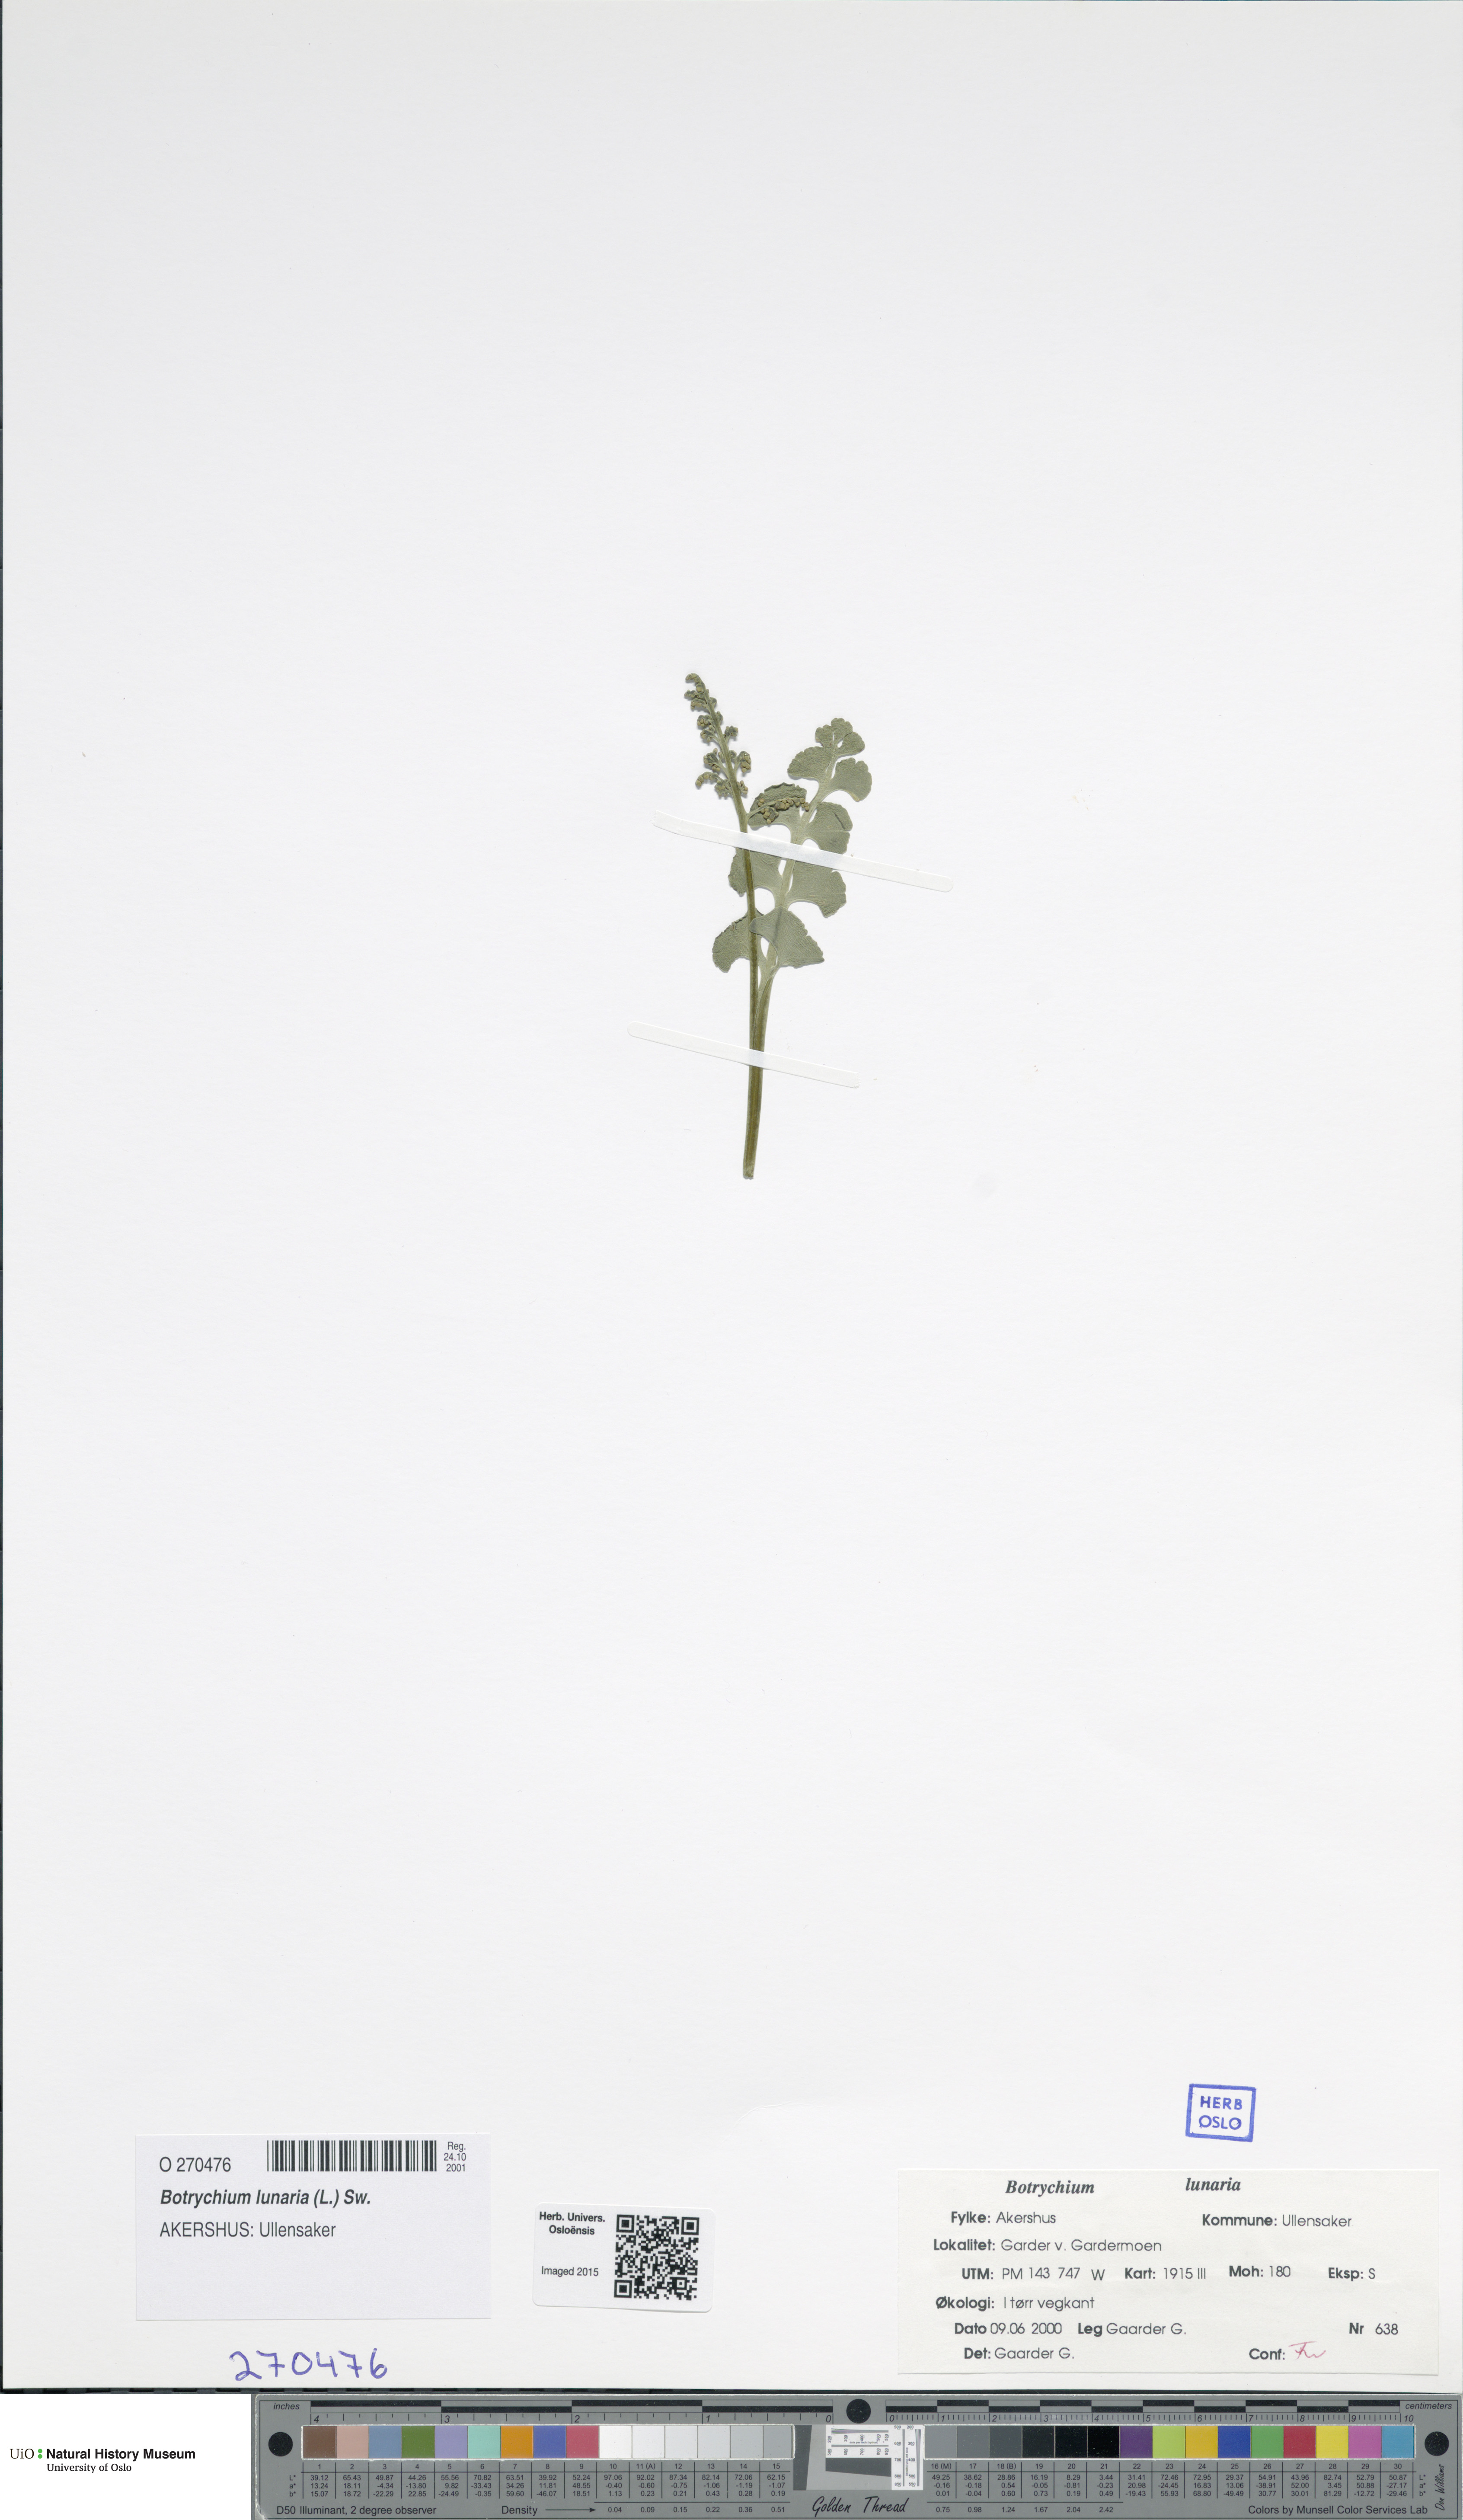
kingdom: Plantae
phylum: Tracheophyta
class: Polypodiopsida
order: Ophioglossales
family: Ophioglossaceae
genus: Botrychium
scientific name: Botrychium lunaria
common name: Moonwort
